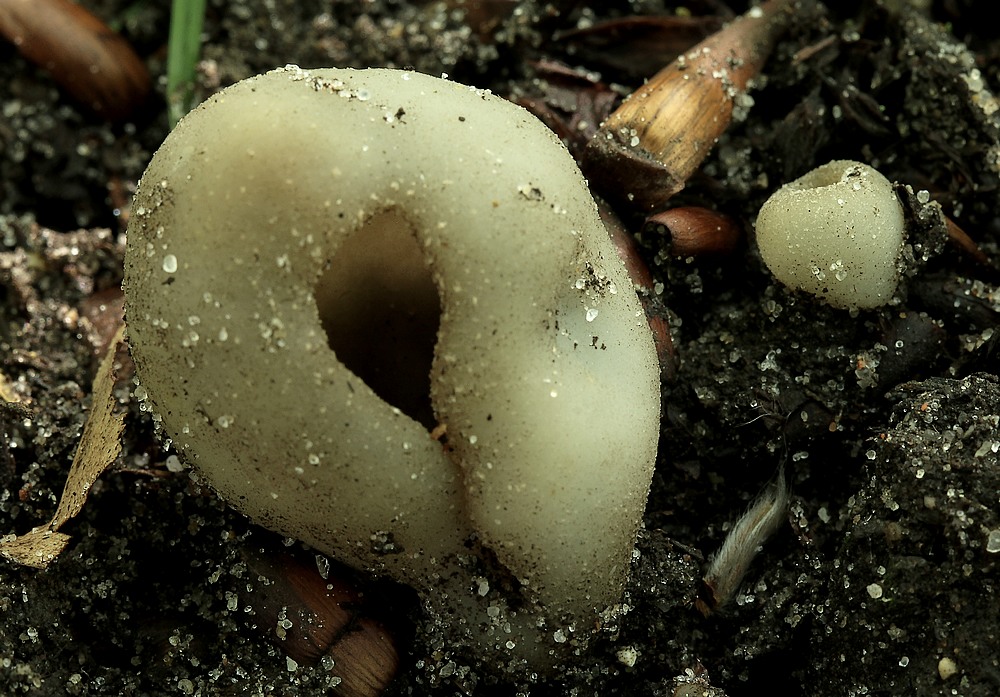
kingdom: Fungi
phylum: Ascomycota
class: Pezizomycetes
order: Pezizales
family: Pezizaceae
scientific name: Pezizaceae
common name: bægersvampfamilien
